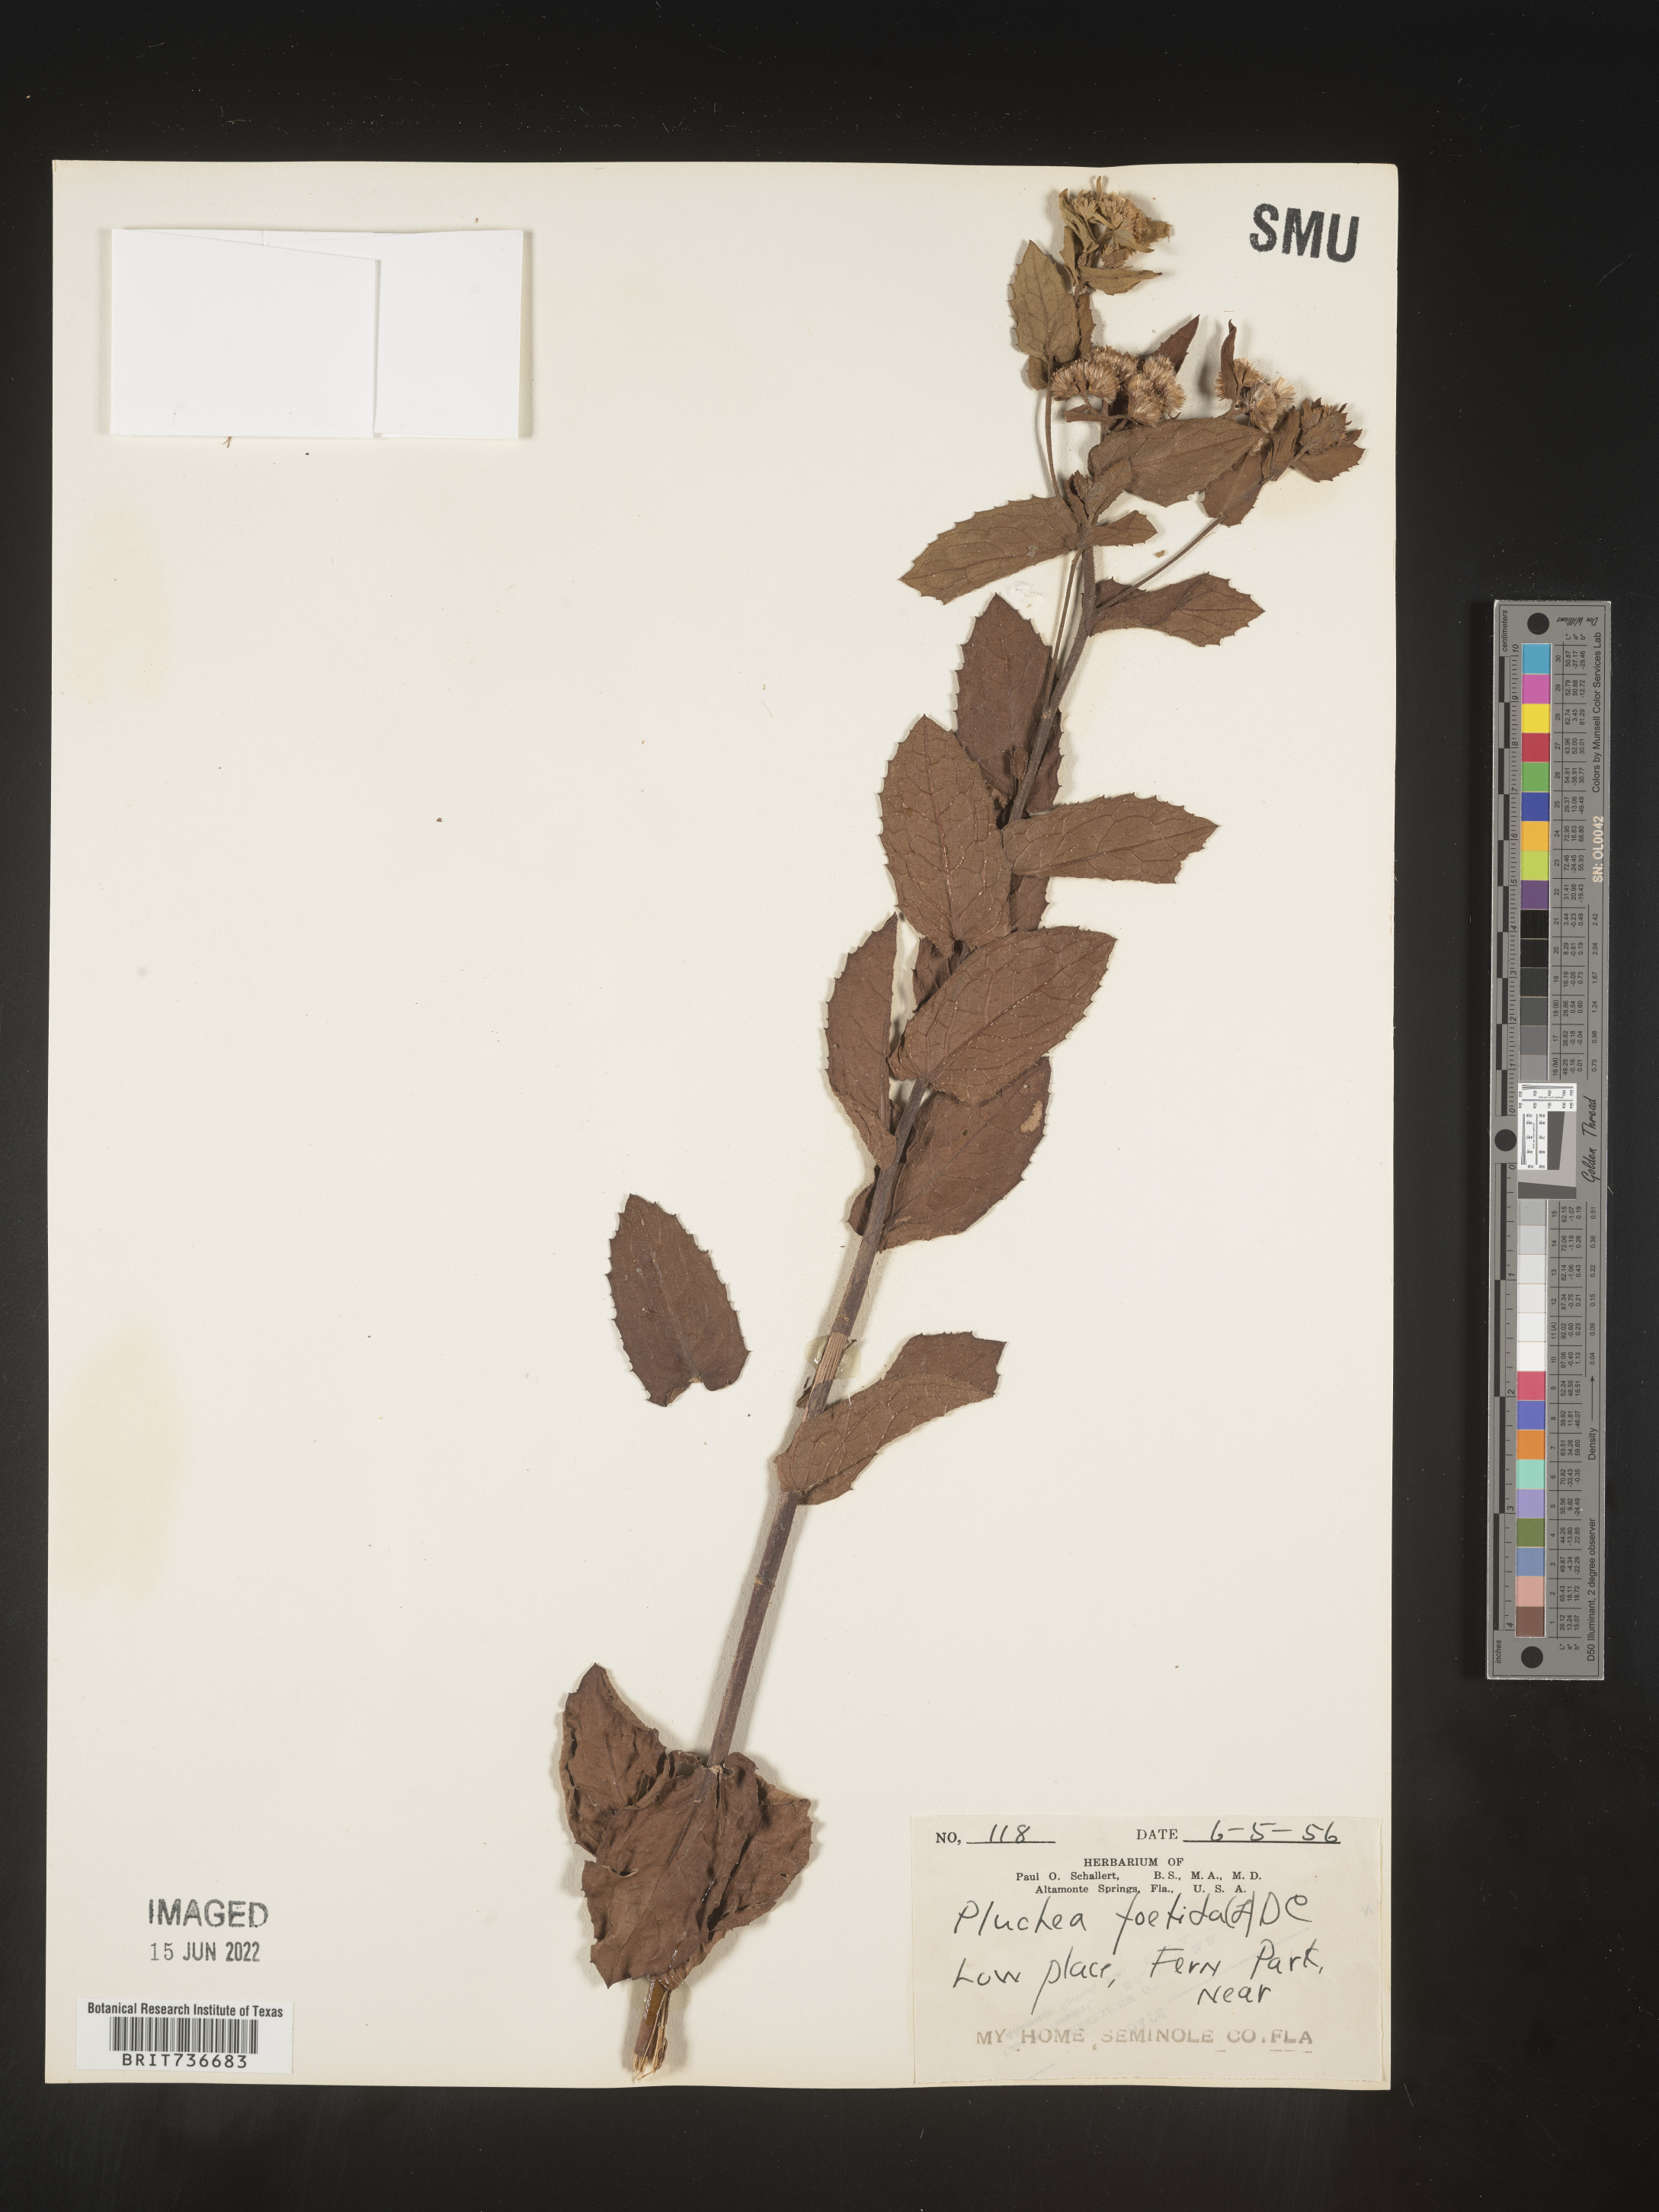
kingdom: Plantae
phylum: Tracheophyta
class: Magnoliopsida
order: Asterales
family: Asteraceae
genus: Pluchea
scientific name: Pluchea foetida
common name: Stinking camphorweed
